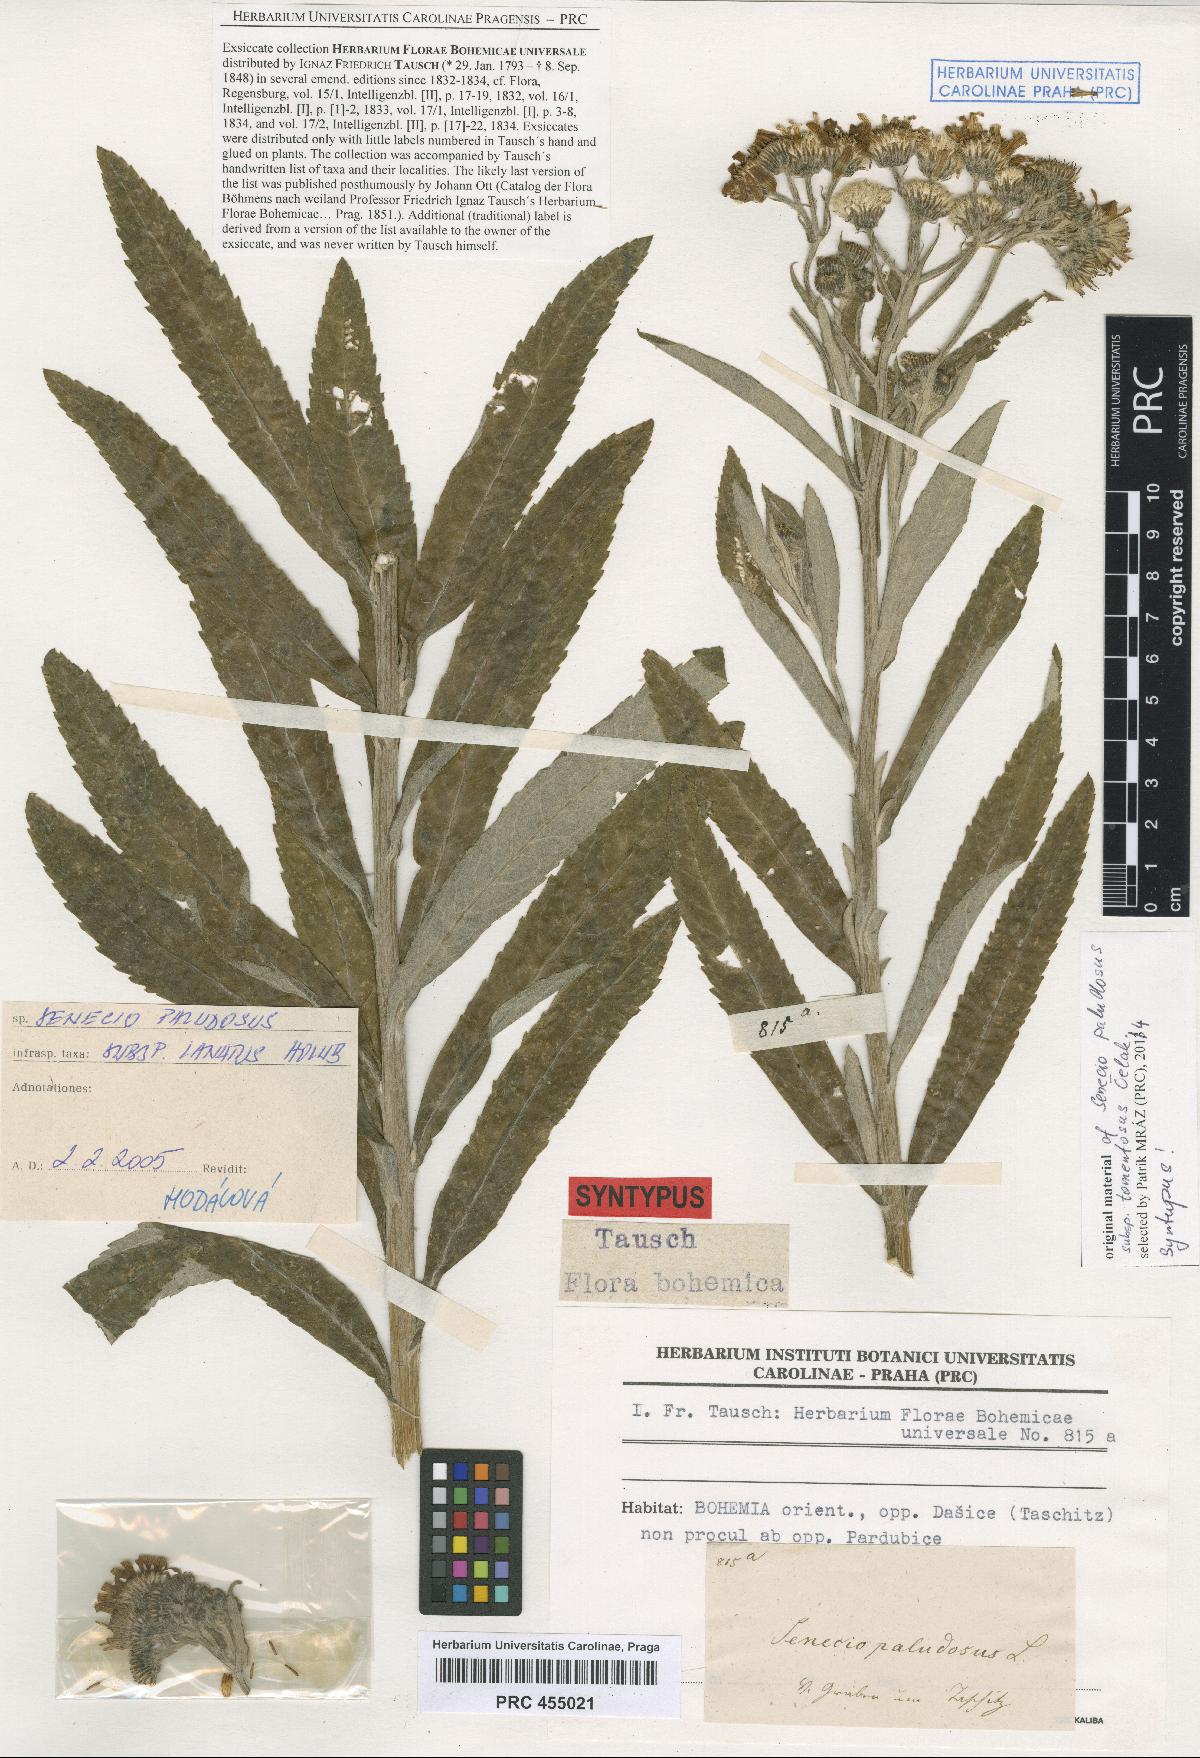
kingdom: Plantae
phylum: Tracheophyta
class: Magnoliopsida
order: Asterales
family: Asteraceae
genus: Jacobaea
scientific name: Jacobaea paludosa
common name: Fen ragwort
